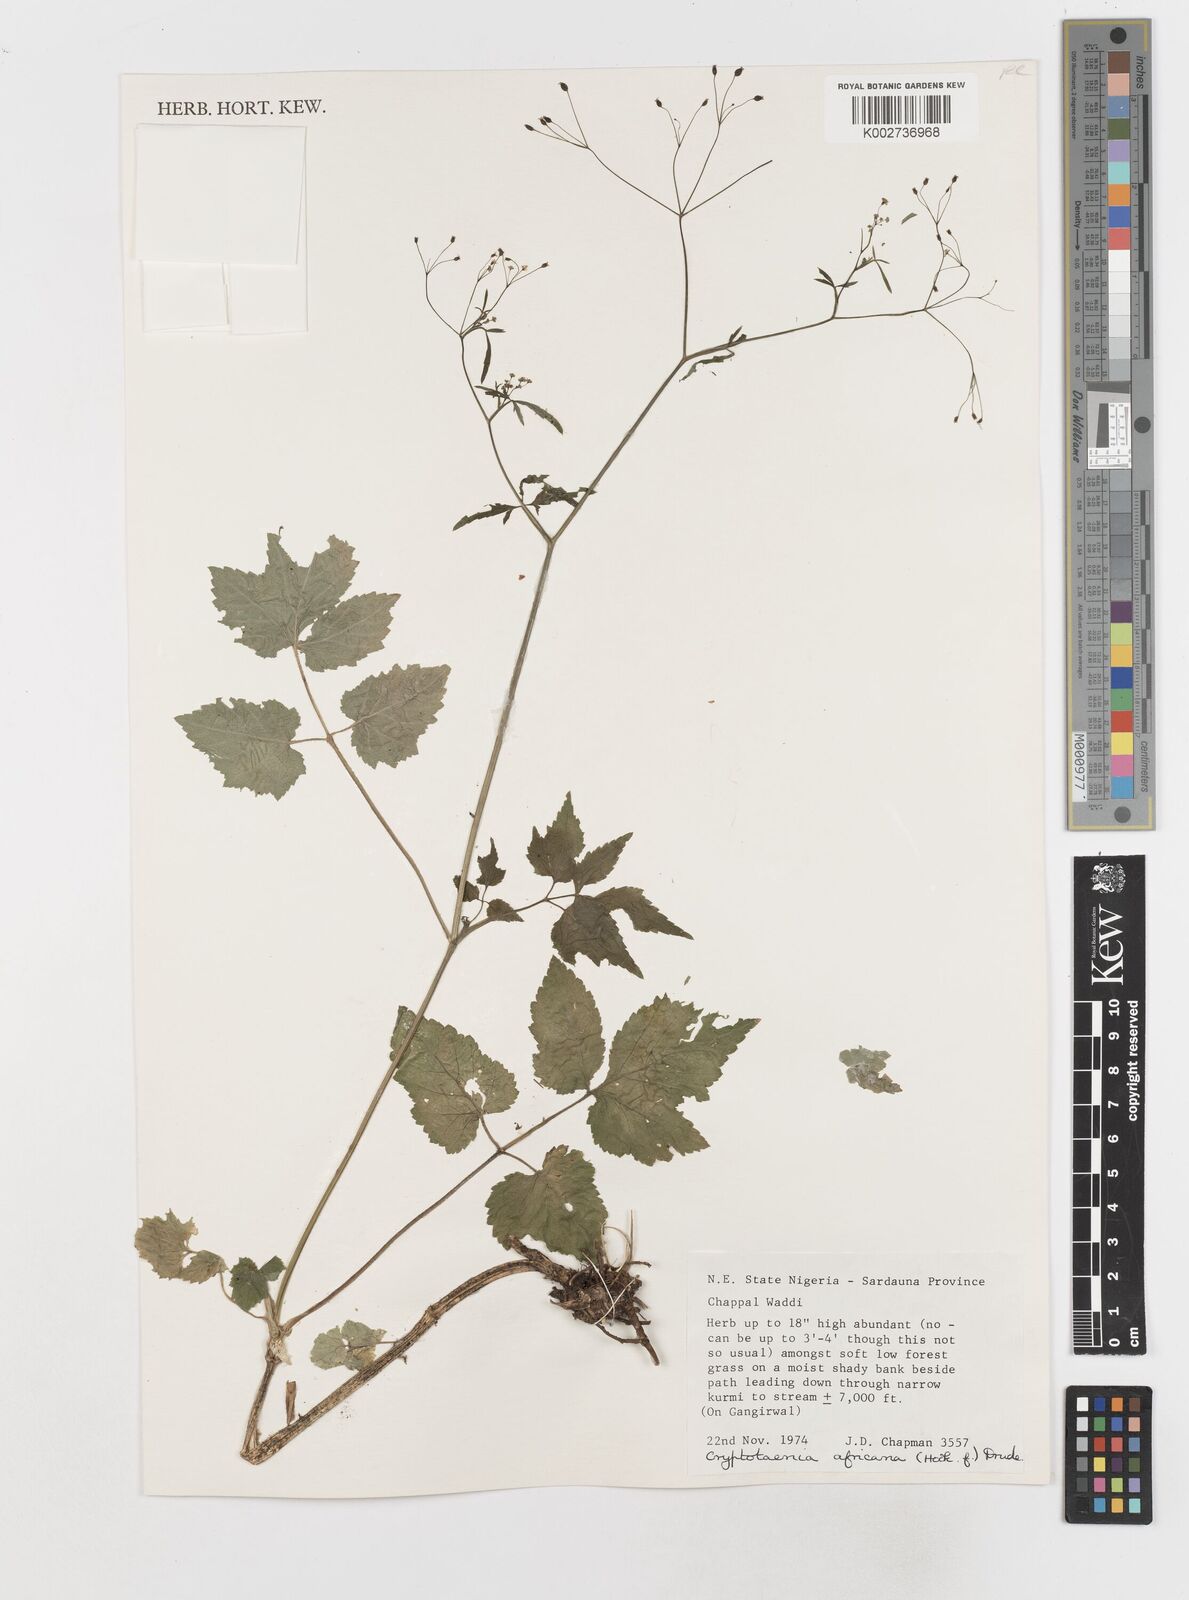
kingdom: Plantae
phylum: Tracheophyta
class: Magnoliopsida
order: Apiales
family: Apiaceae
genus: Cryptotaenia
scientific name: Cryptotaenia africana
